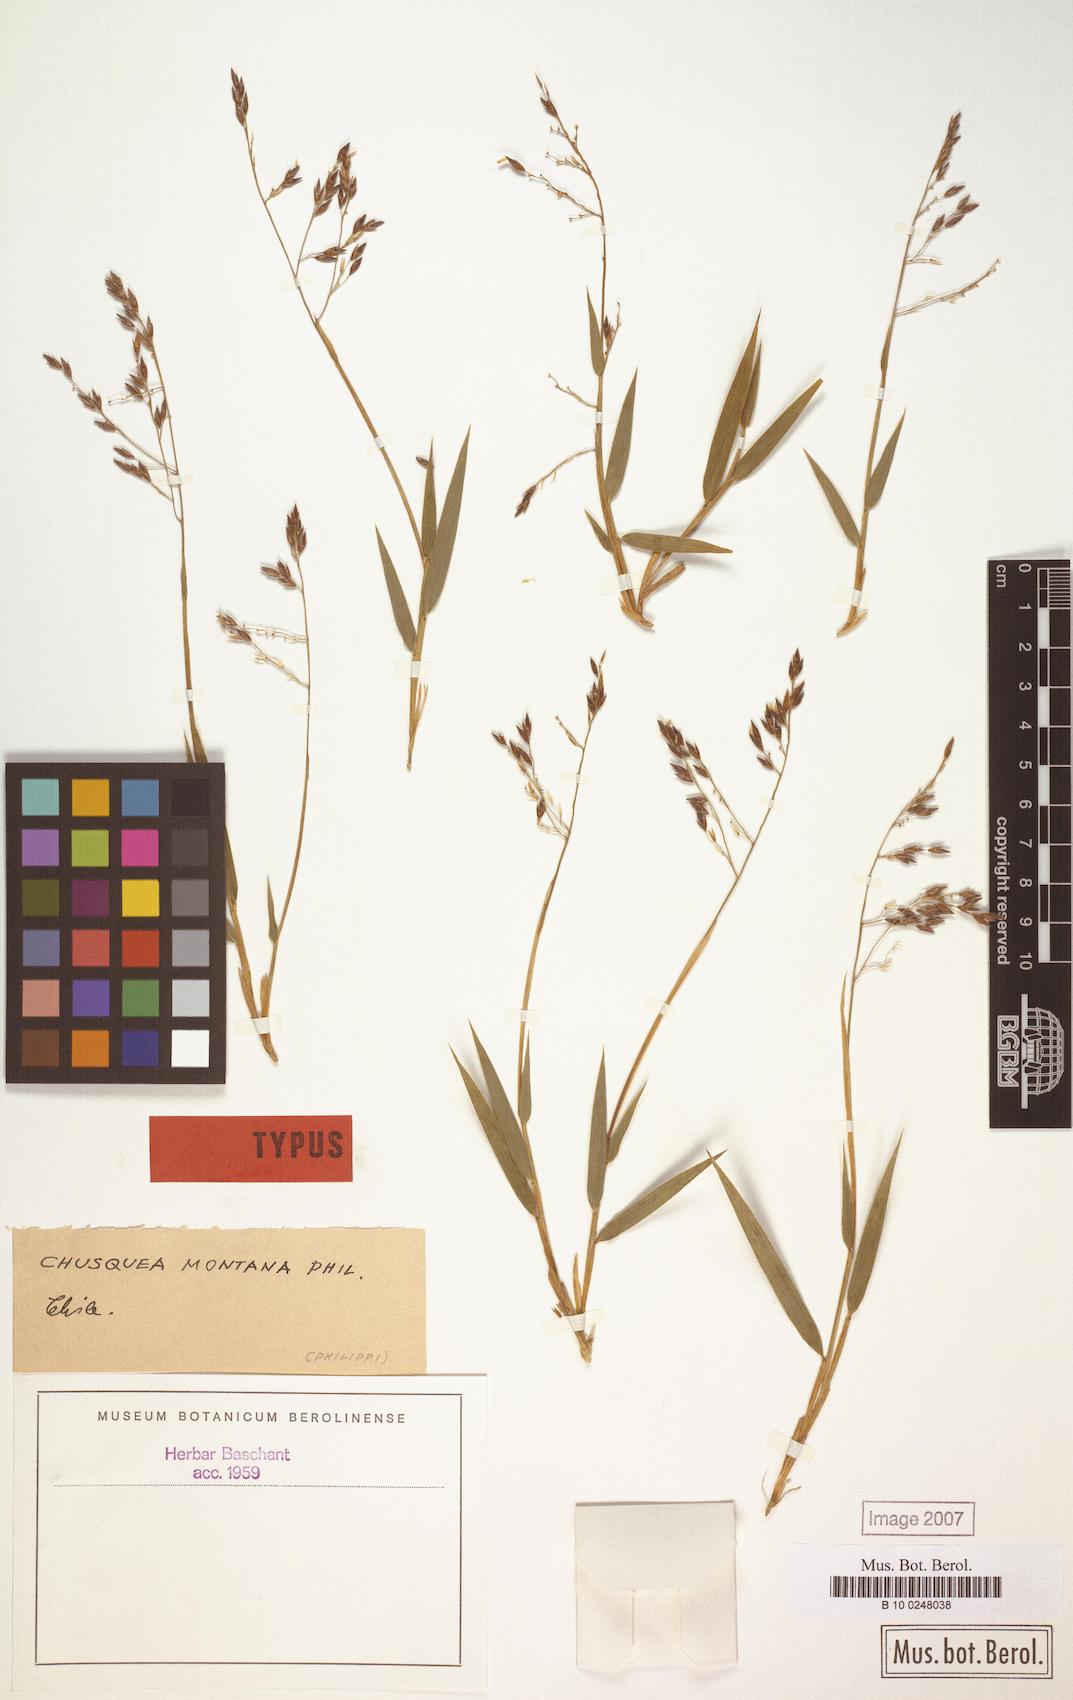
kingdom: Plantae
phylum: Tracheophyta
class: Liliopsida
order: Poales
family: Poaceae
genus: Chusquea
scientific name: Chusquea montana
